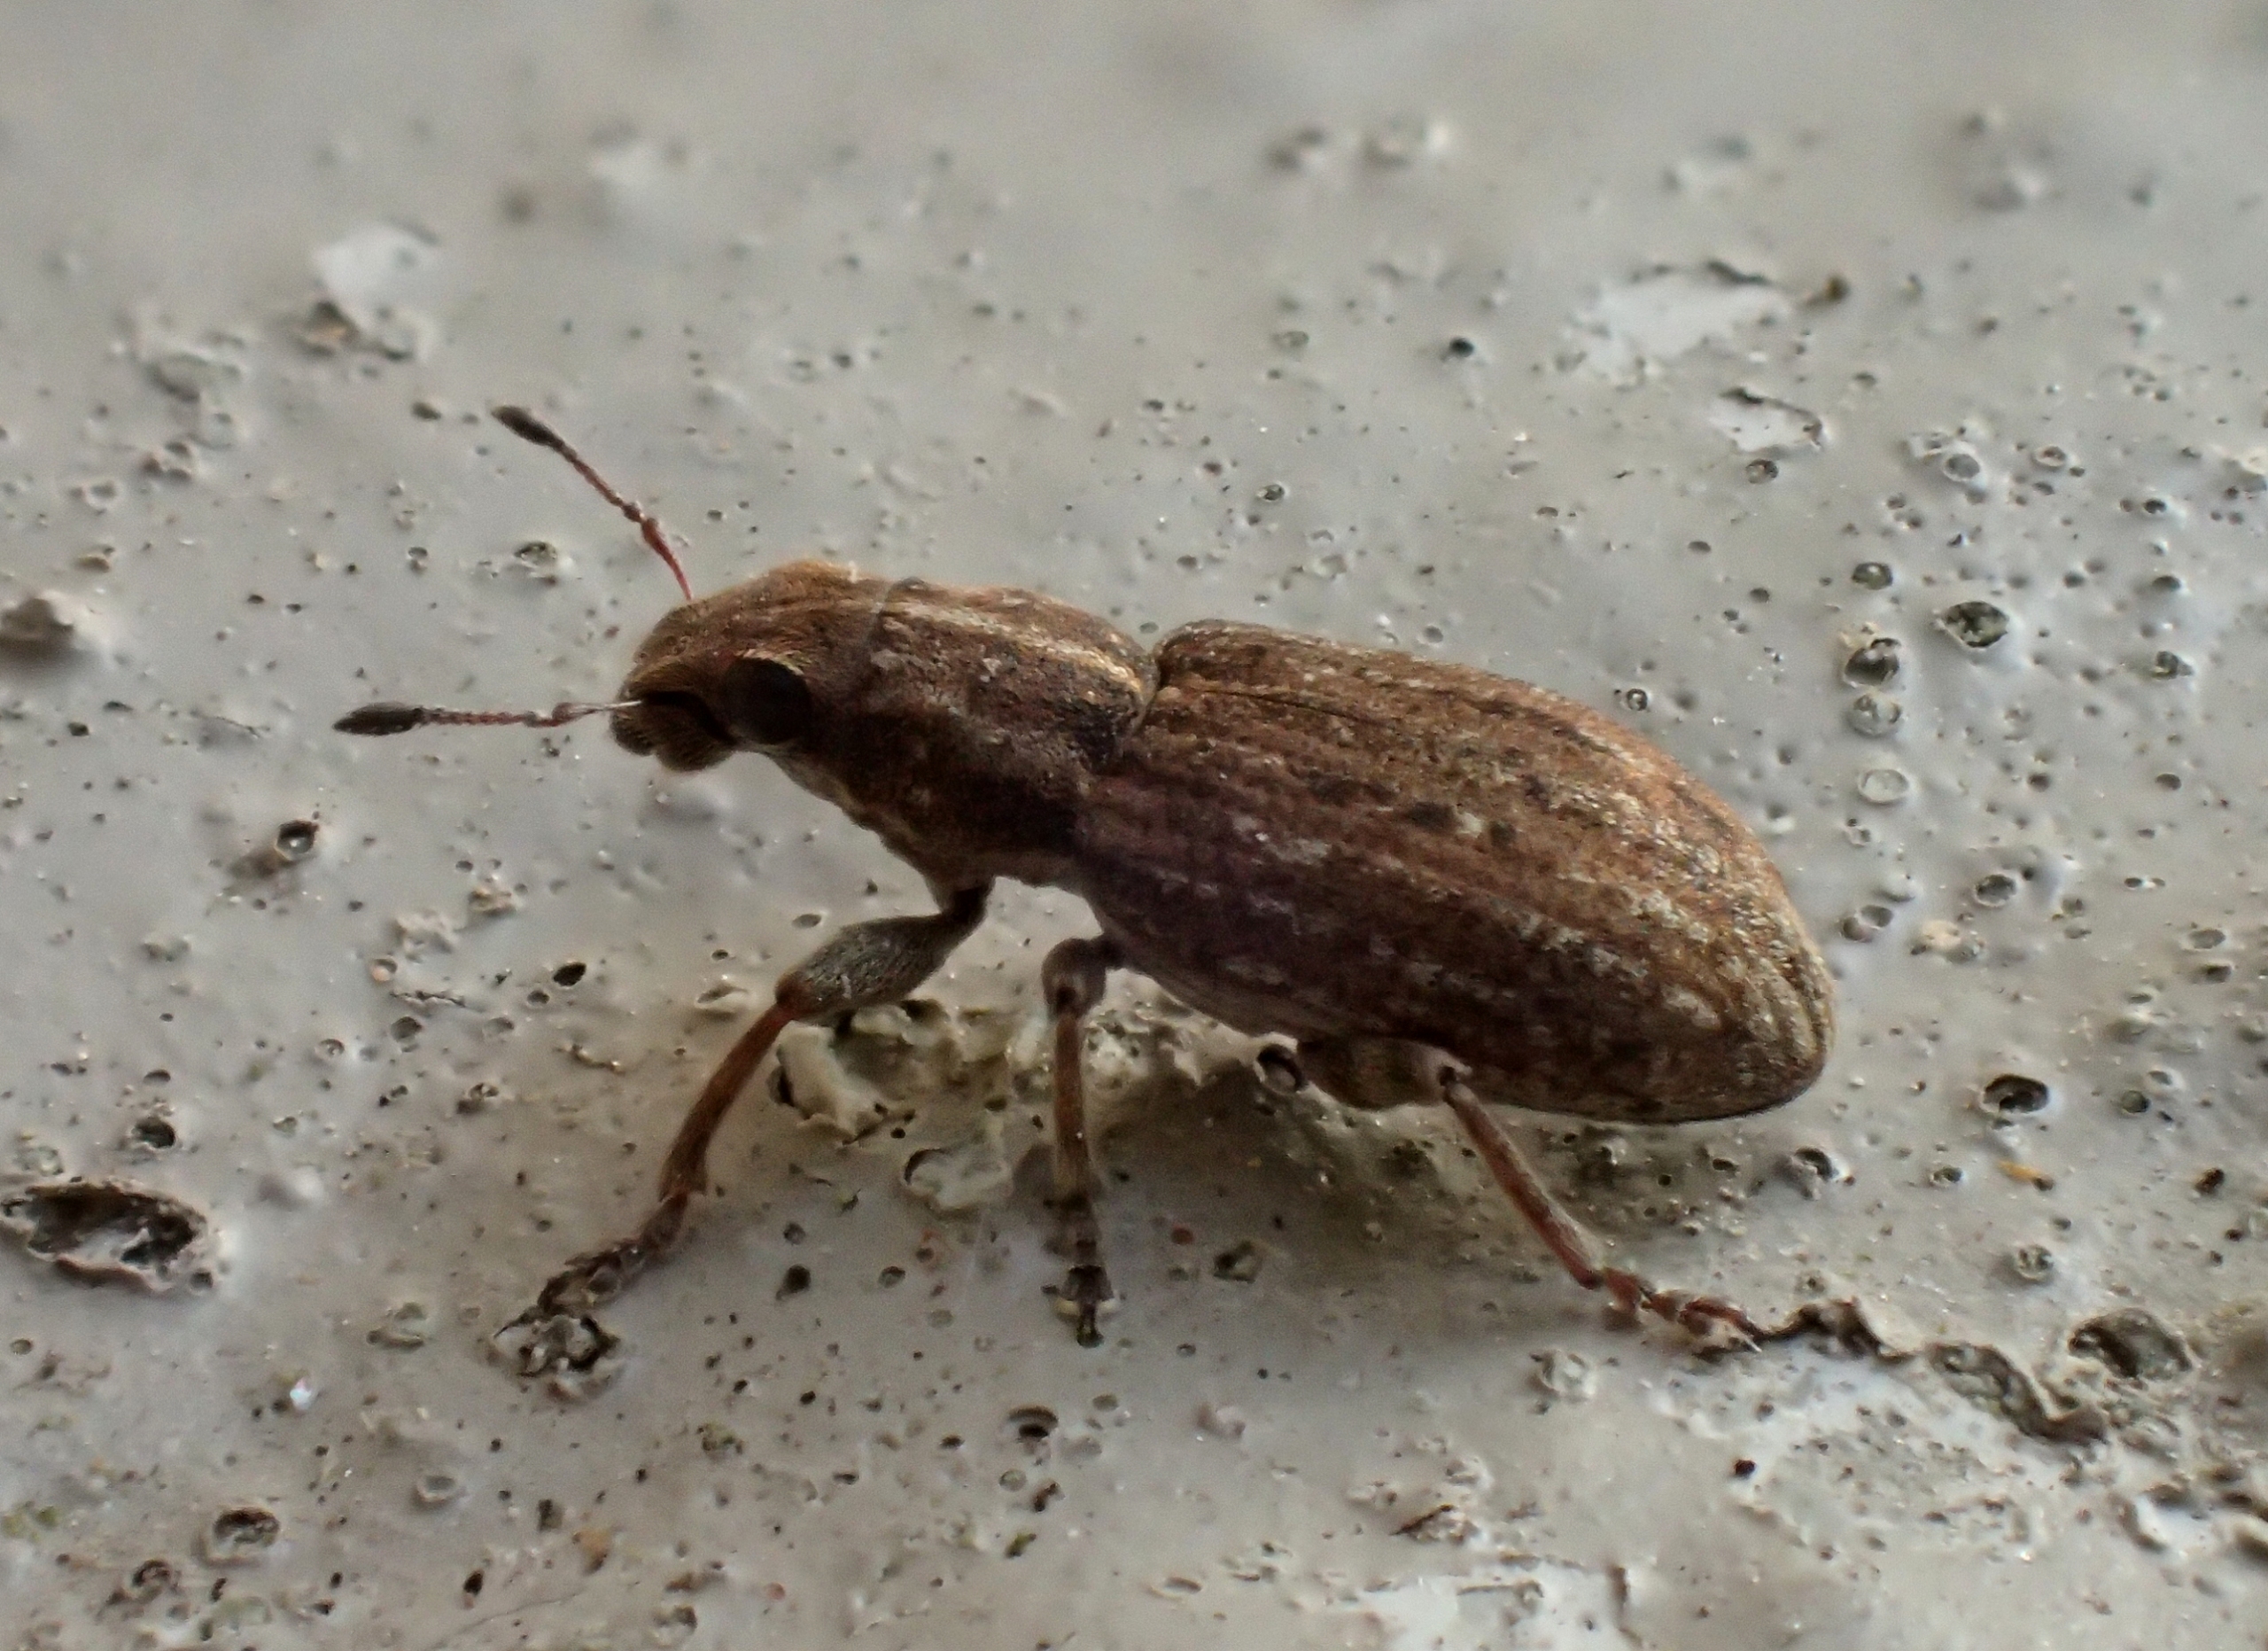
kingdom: Animalia
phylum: Arthropoda
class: Insecta
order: Coleoptera
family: Curculionidae
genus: Sitona
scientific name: Sitona obsoletus
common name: Hvidkløverbladrandbille
